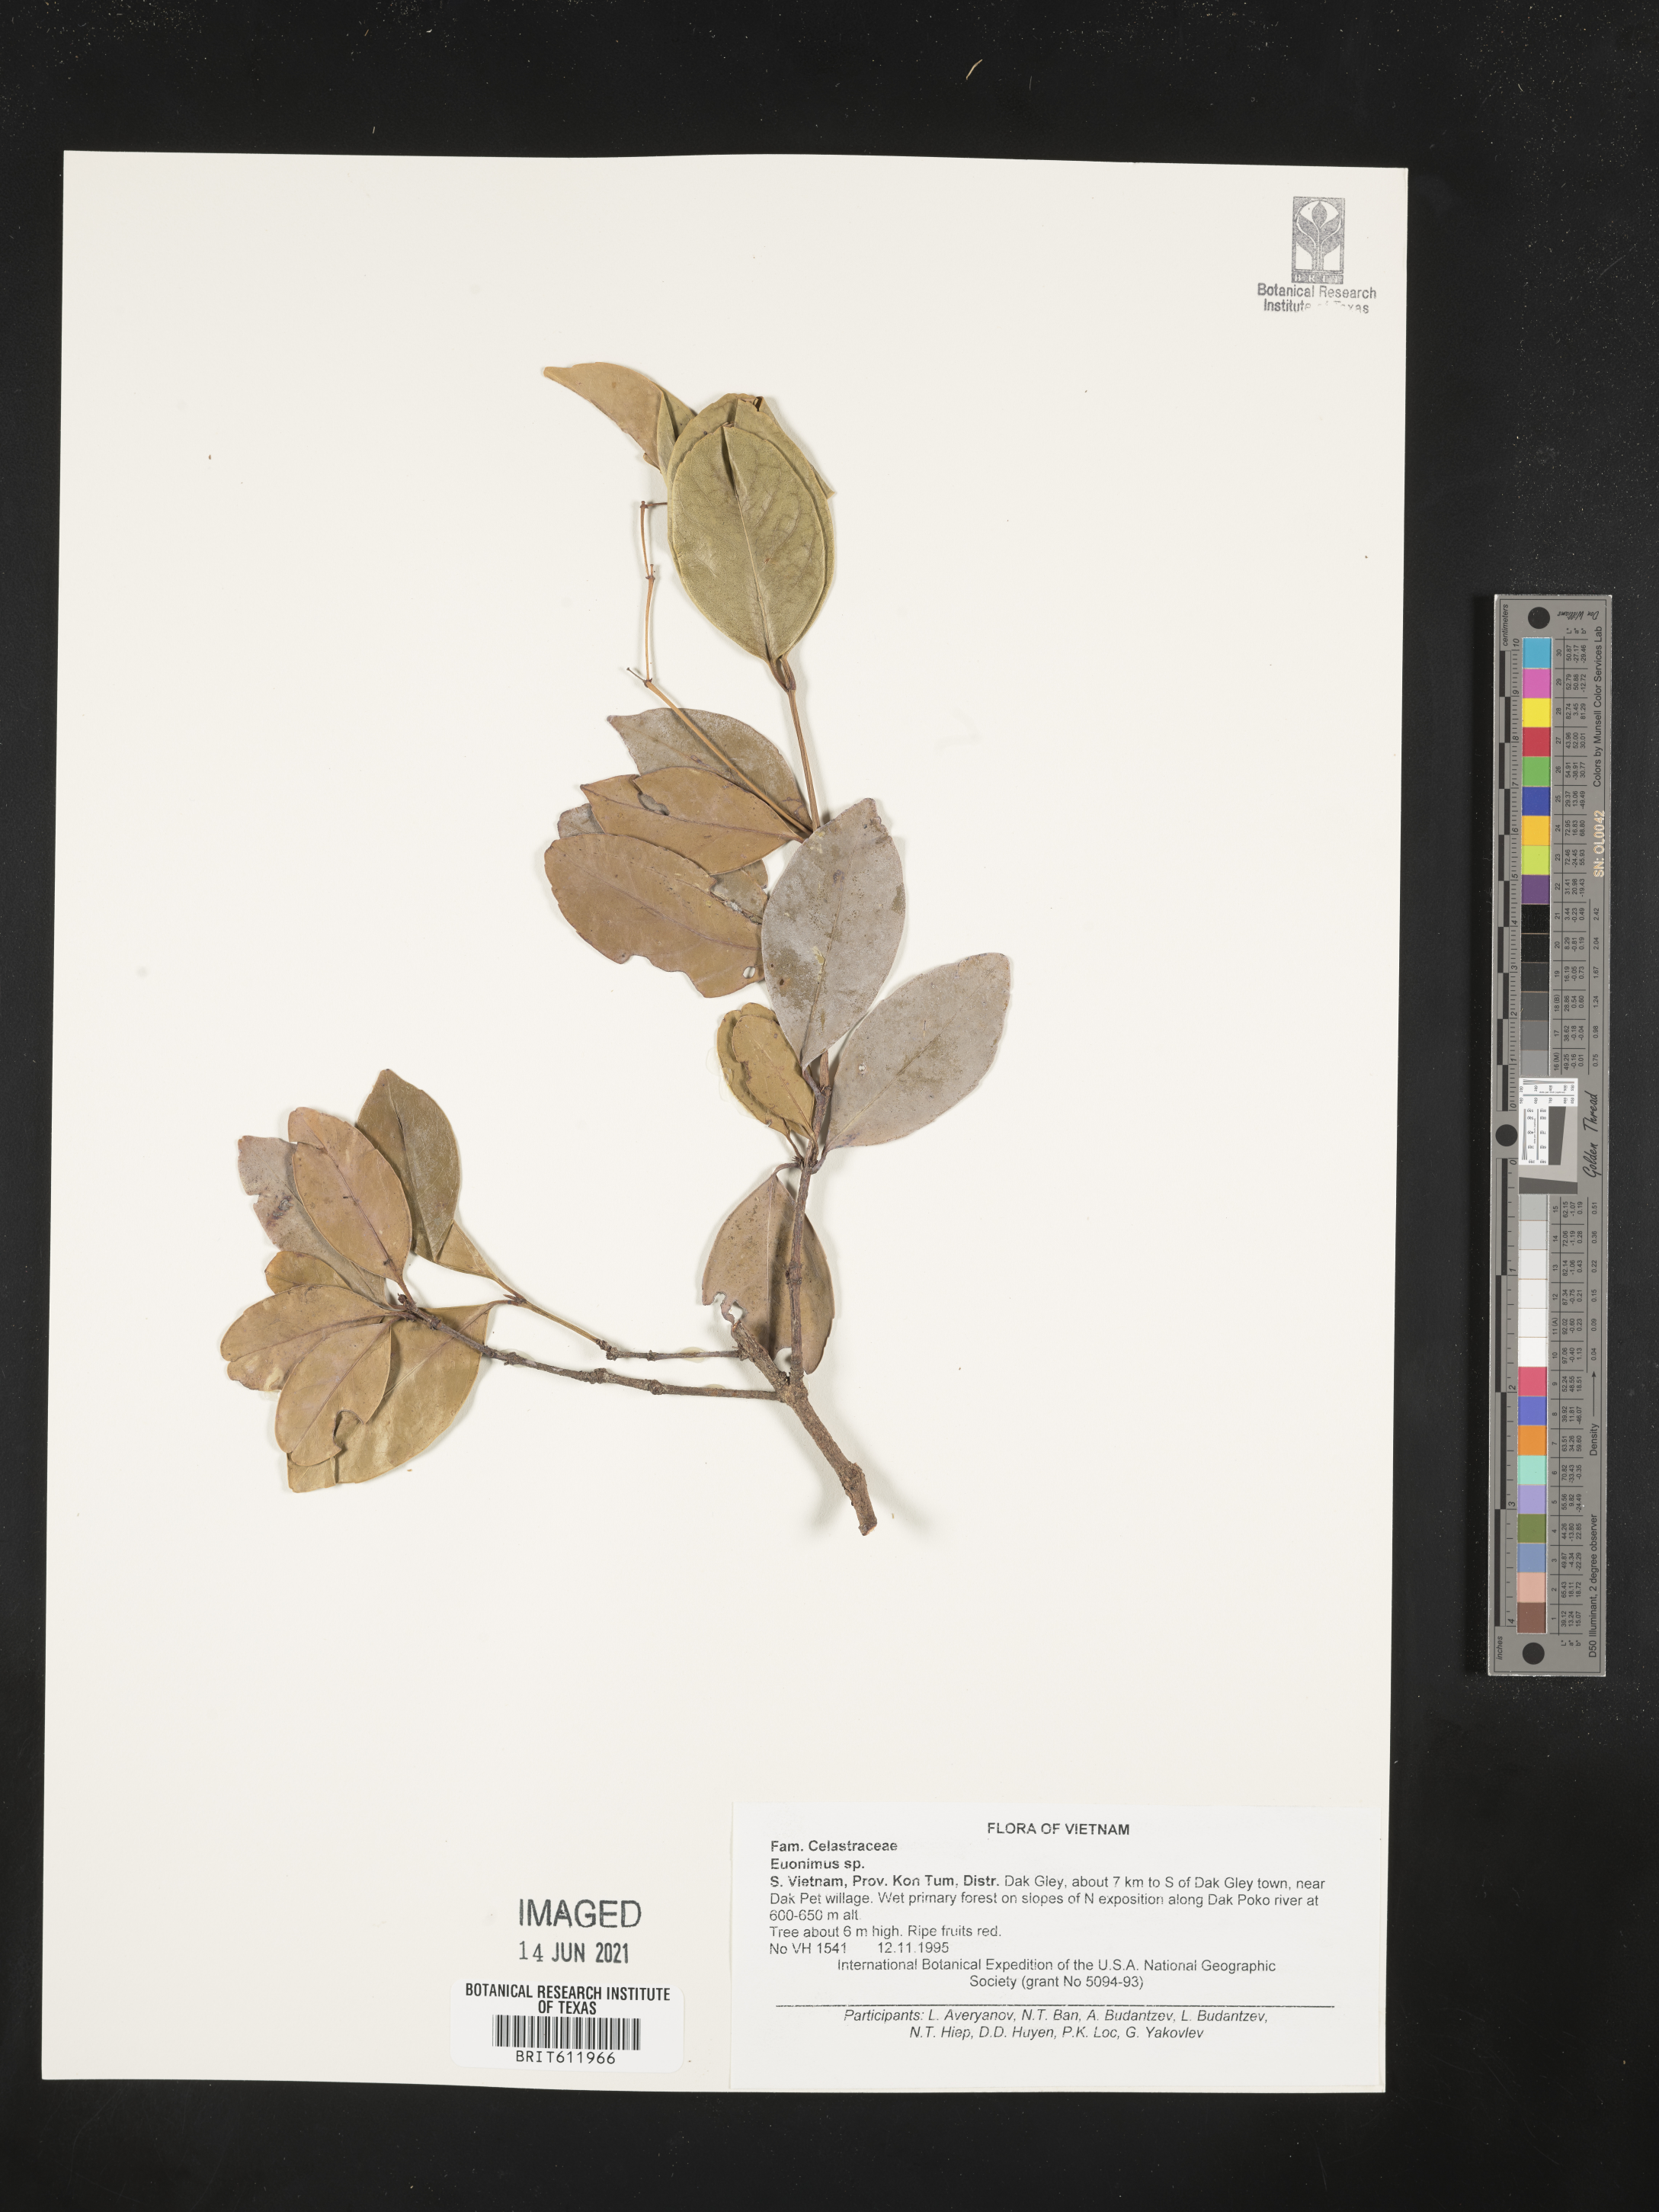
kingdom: Plantae
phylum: Tracheophyta
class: Magnoliopsida
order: Celastrales
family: Celastraceae
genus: Euonymus
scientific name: Euonymus
